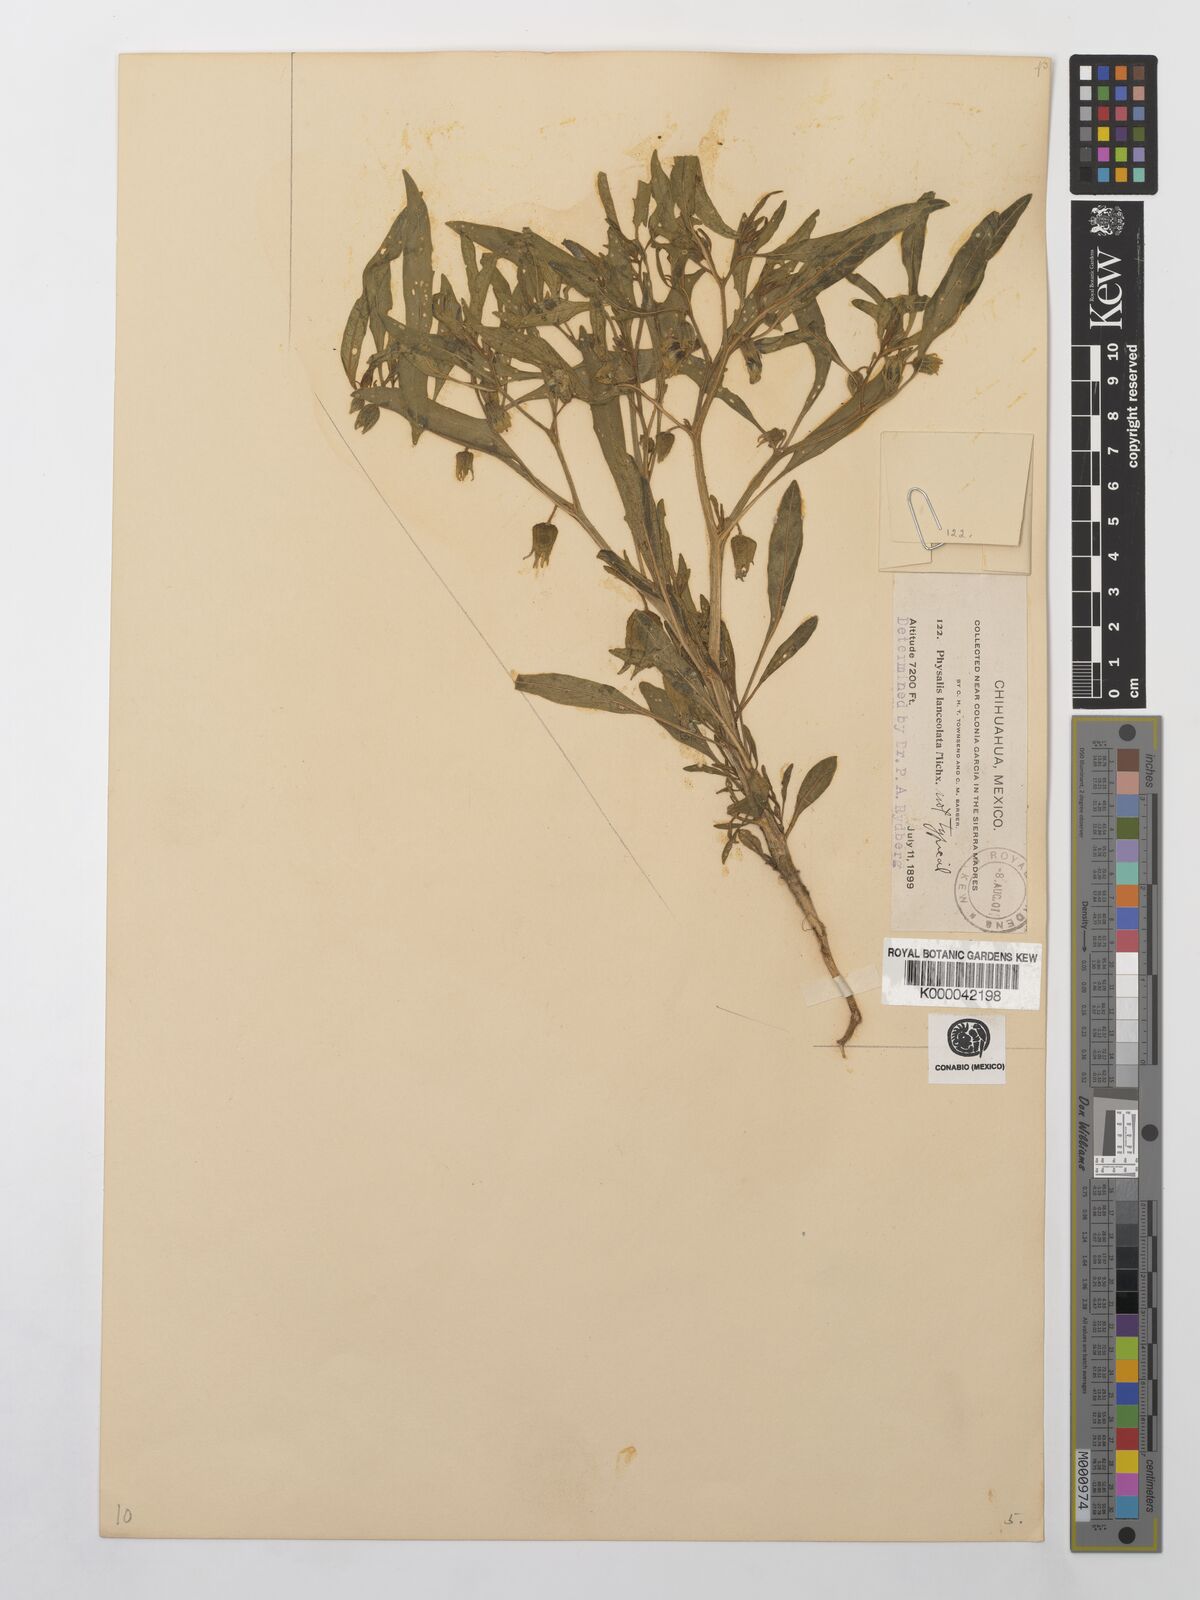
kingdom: Plantae
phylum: Tracheophyta
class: Magnoliopsida
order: Solanales
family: Solanaceae
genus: Physalis
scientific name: Physalis virginiana
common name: Virginia ground-cherry
